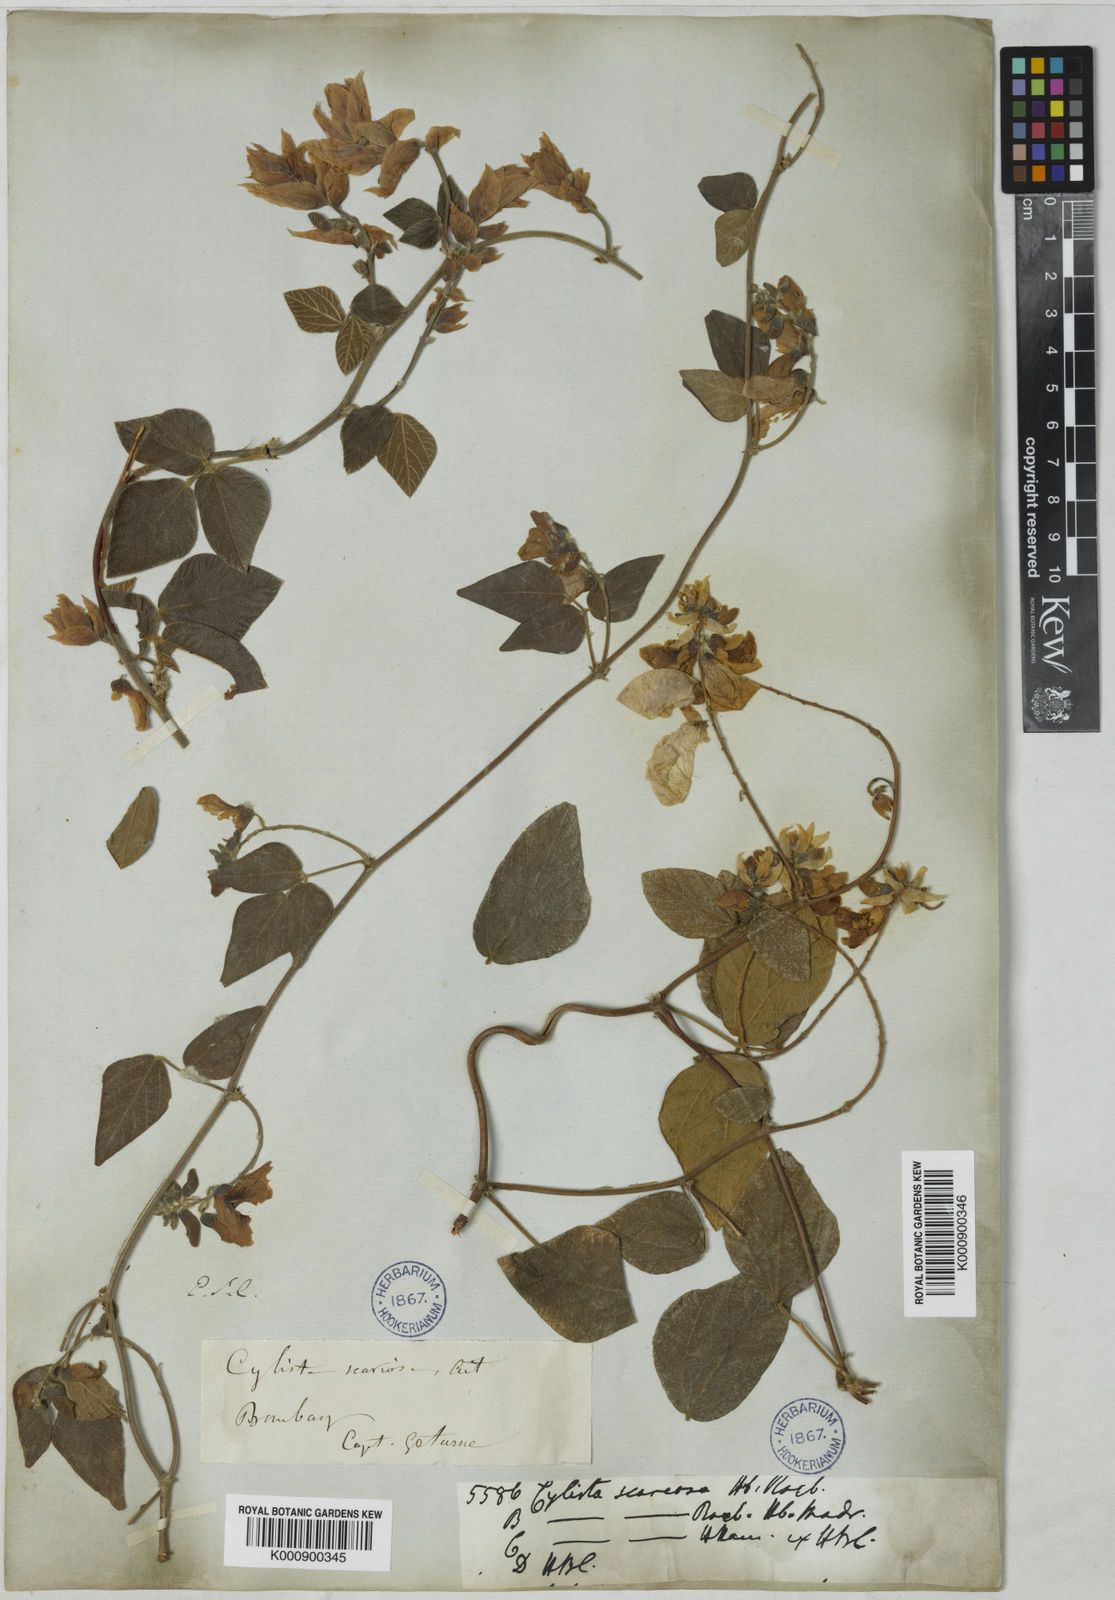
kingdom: Plantae
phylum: Tracheophyta
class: Magnoliopsida
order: Fabales
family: Fabaceae
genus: Paracalyx
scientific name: Paracalyx scariosus
